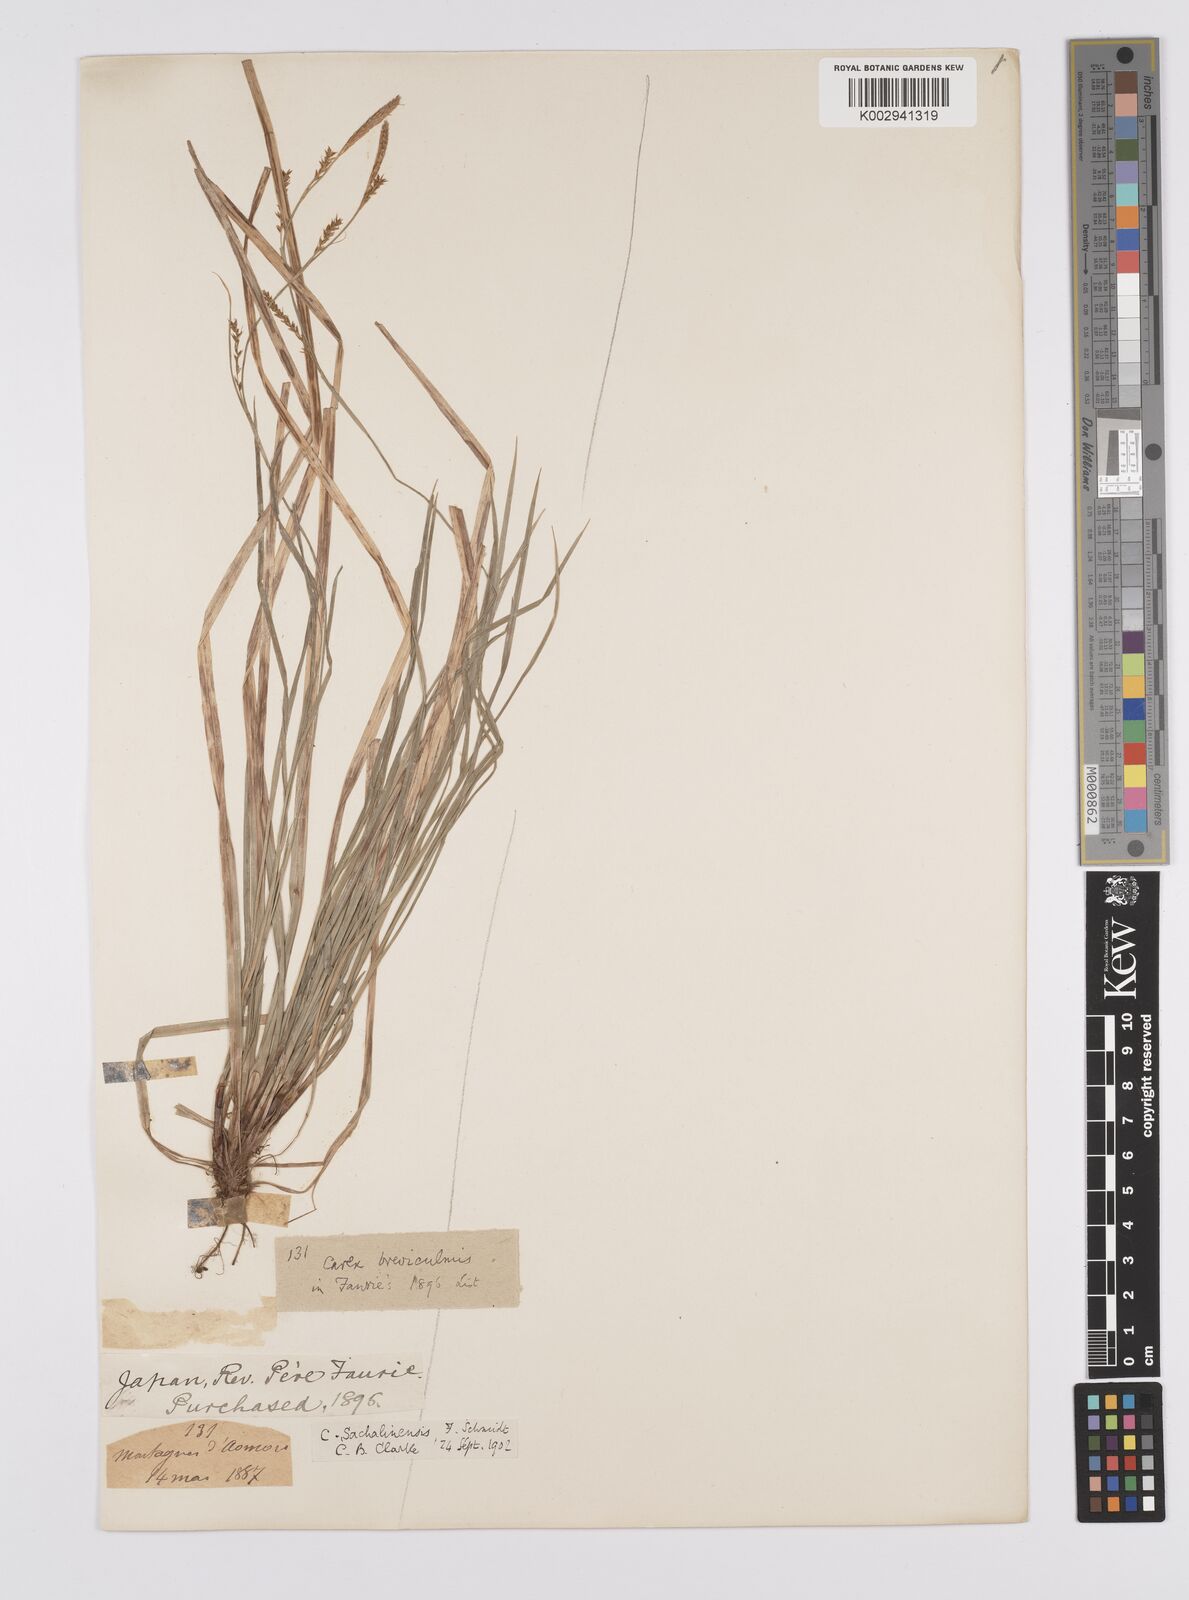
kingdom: Plantae
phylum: Tracheophyta
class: Liliopsida
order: Poales
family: Cyperaceae
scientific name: Cyperaceae
